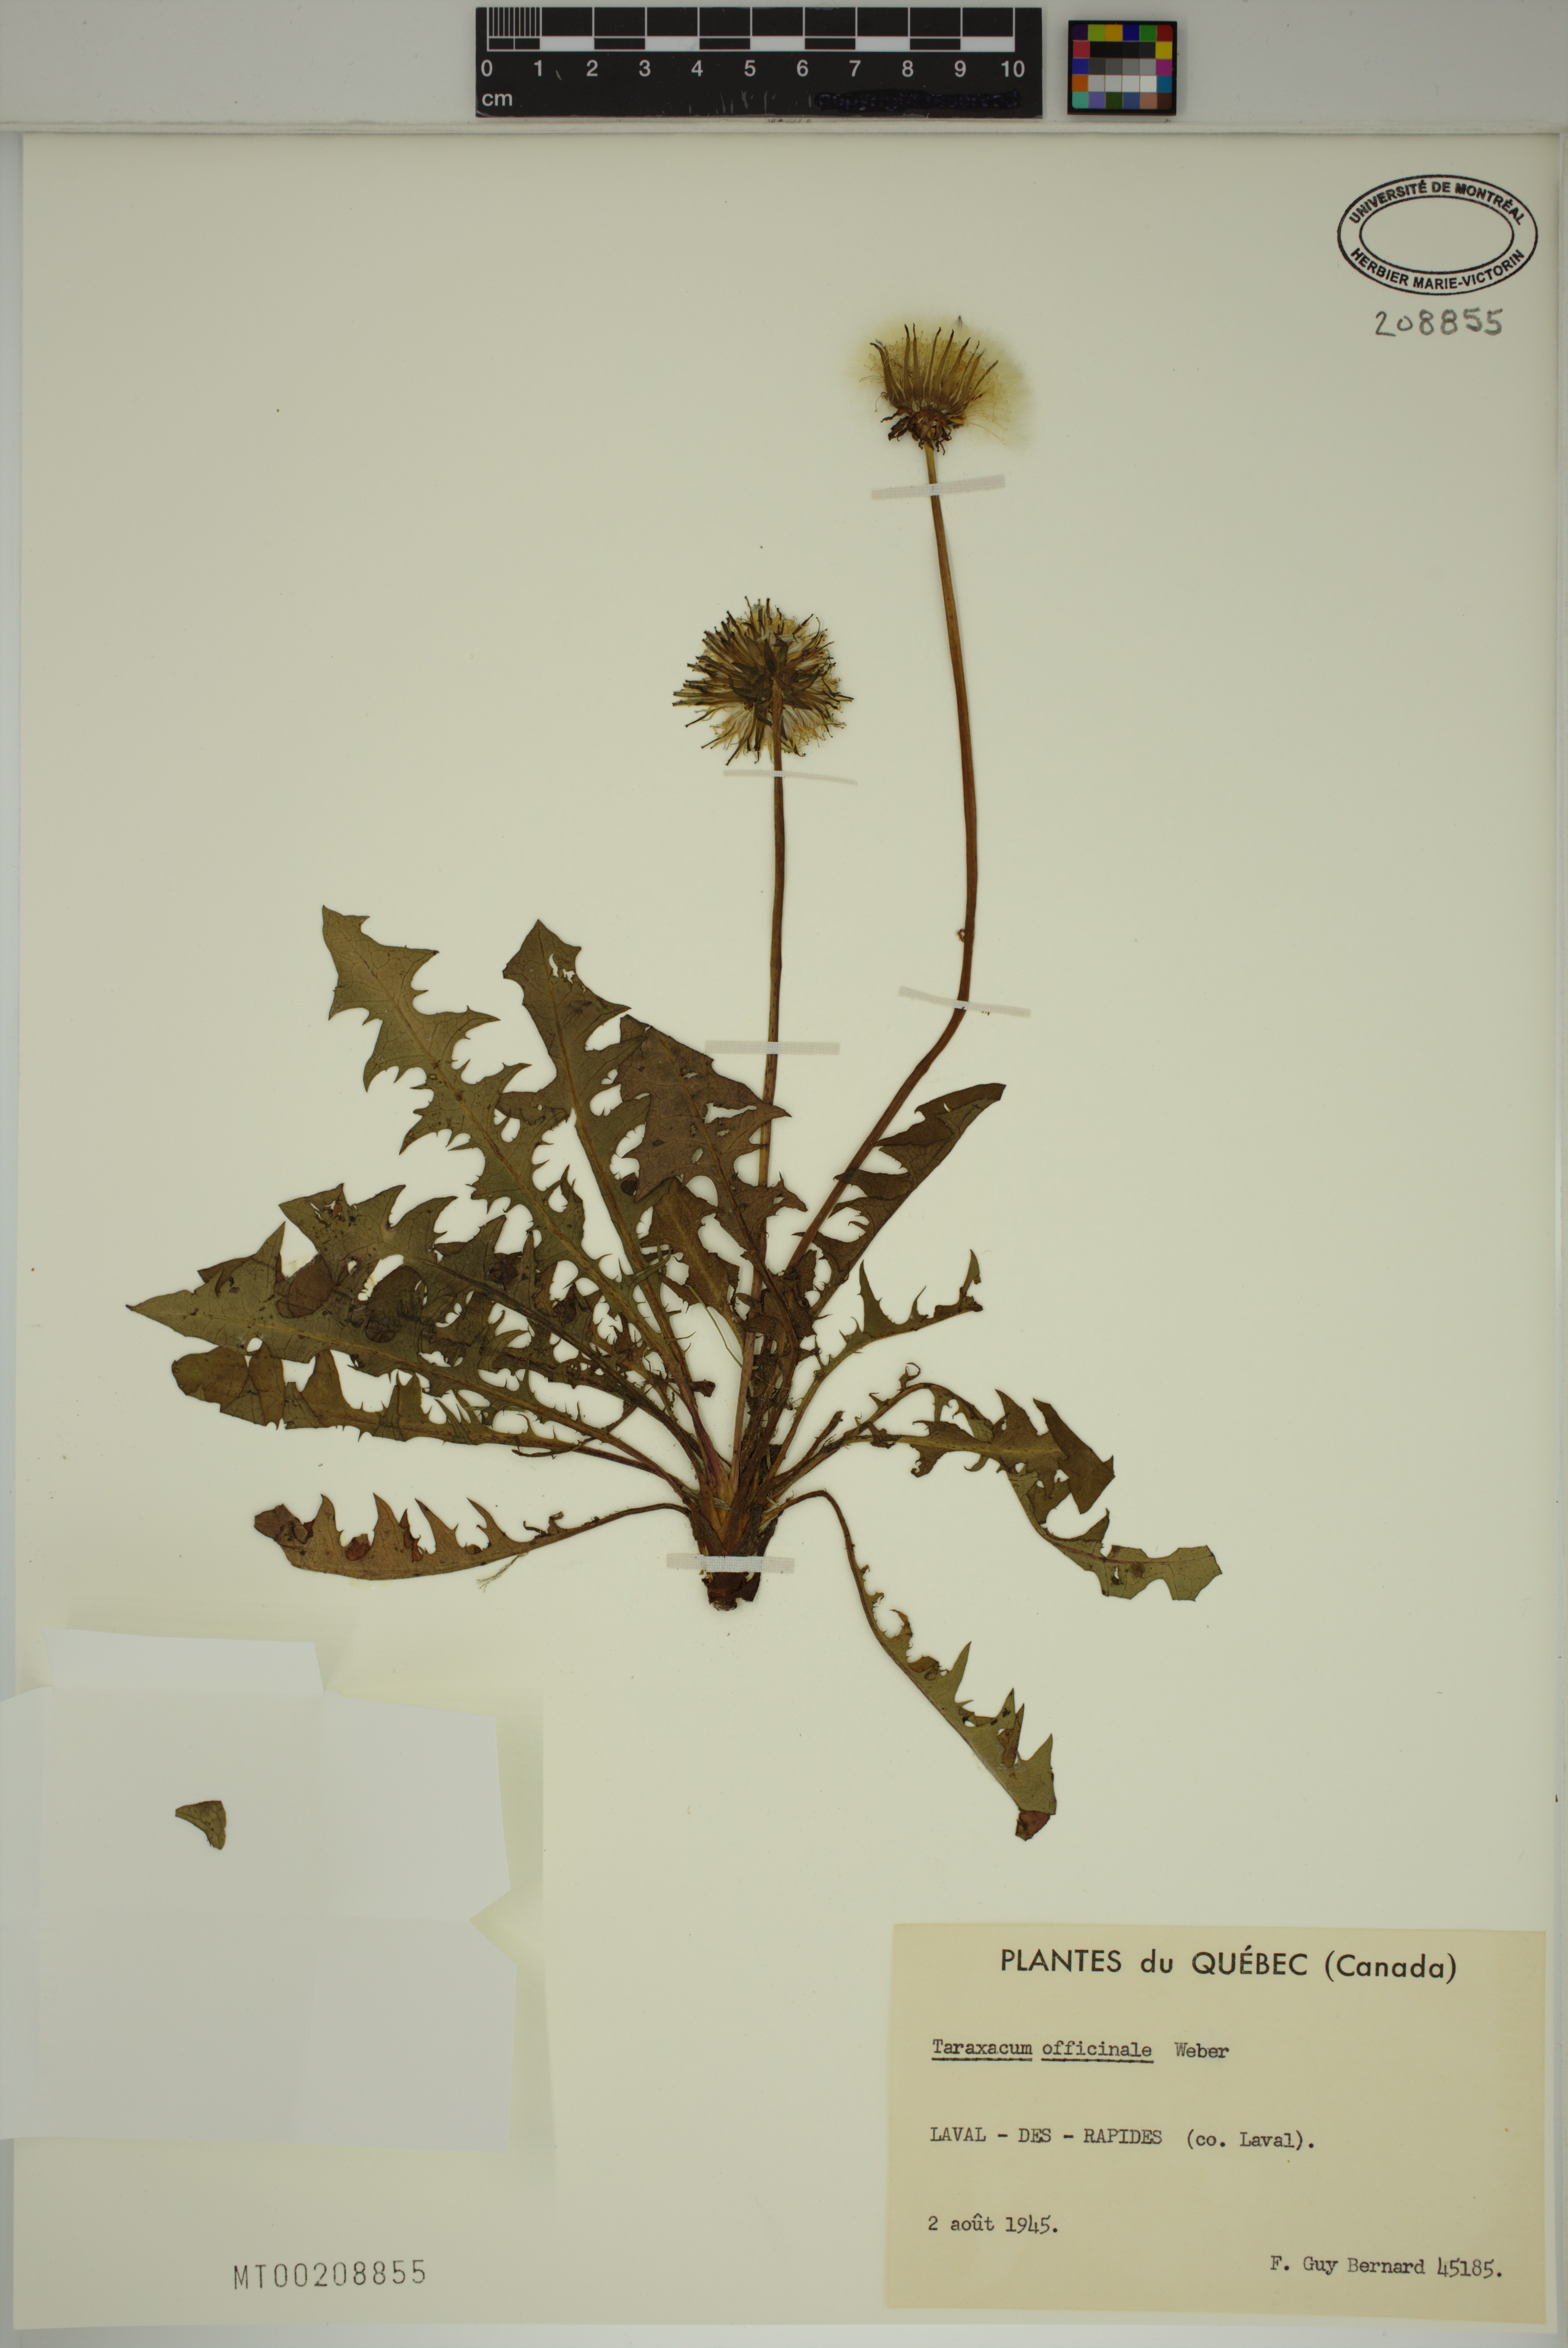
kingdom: Plantae
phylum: Tracheophyta
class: Magnoliopsida
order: Asterales
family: Asteraceae
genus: Taraxacum
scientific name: Taraxacum officinale
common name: Common dandelion
